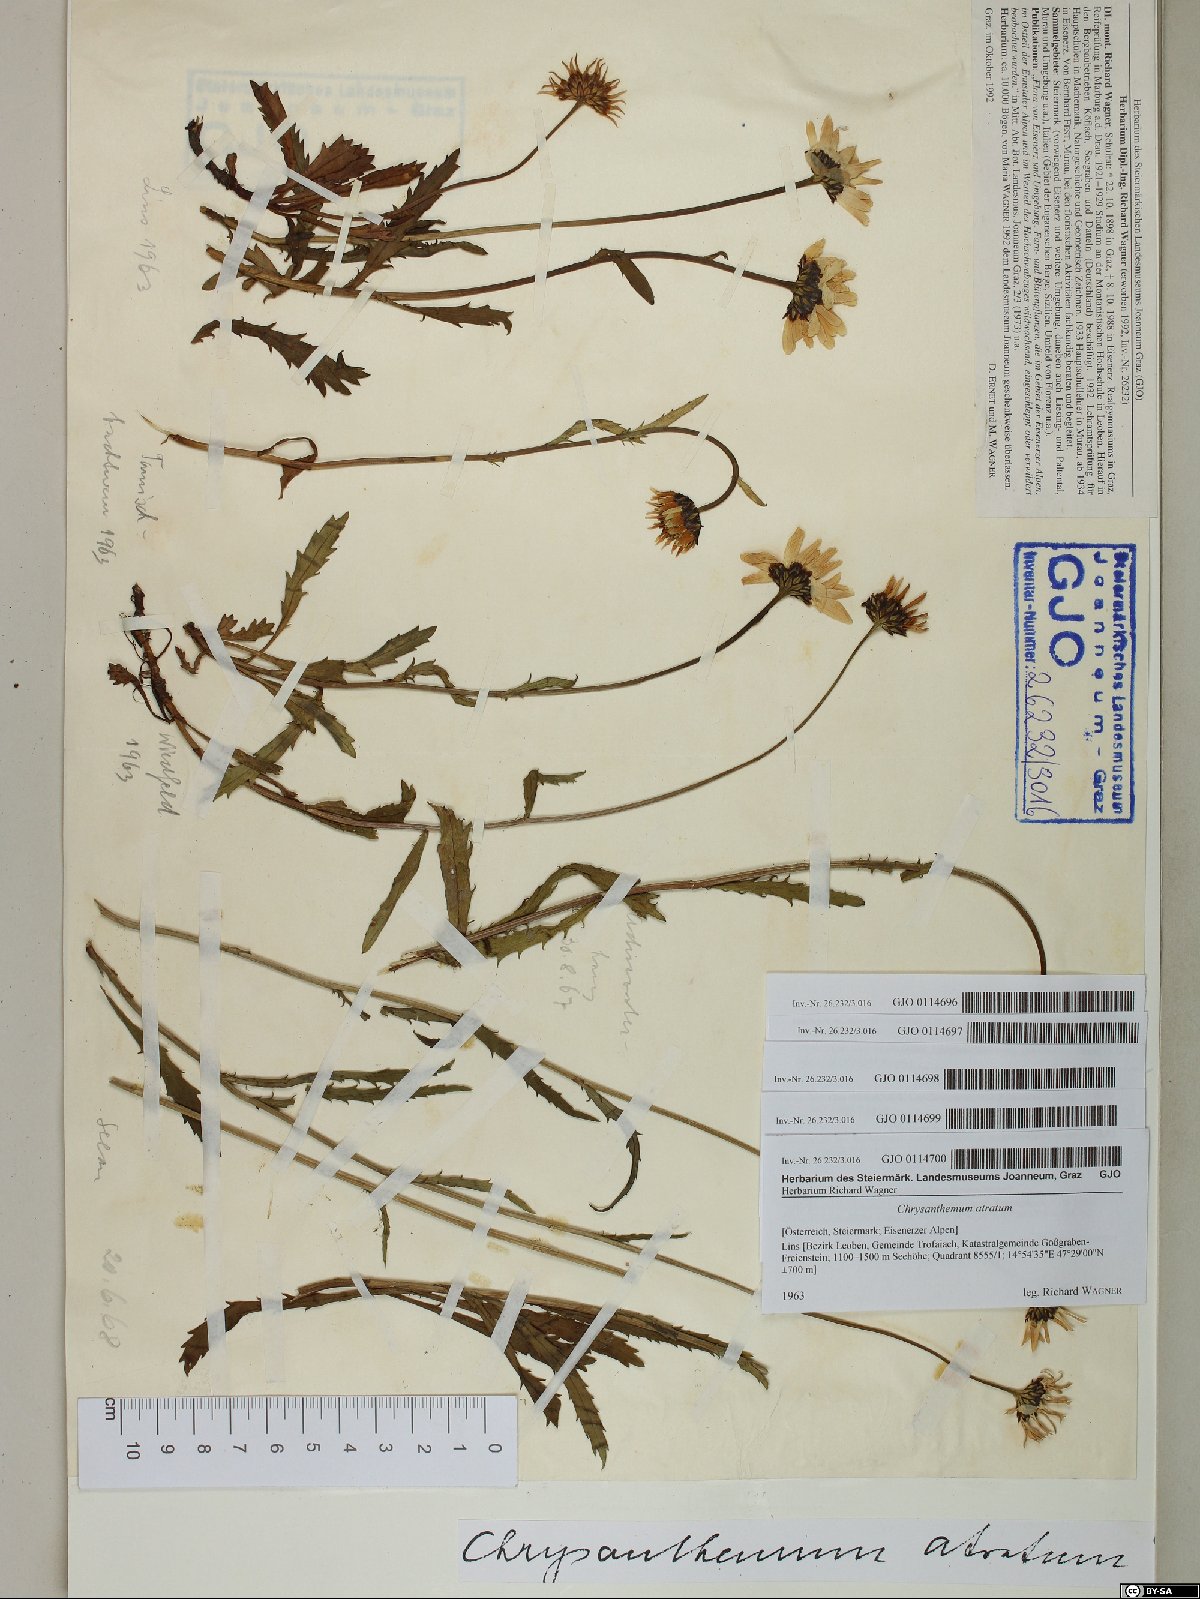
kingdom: Plantae
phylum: Tracheophyta
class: Magnoliopsida
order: Asterales
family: Asteraceae
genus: Leucanthemum
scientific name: Leucanthemum atratum
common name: Saw-leaved moon-daisy
